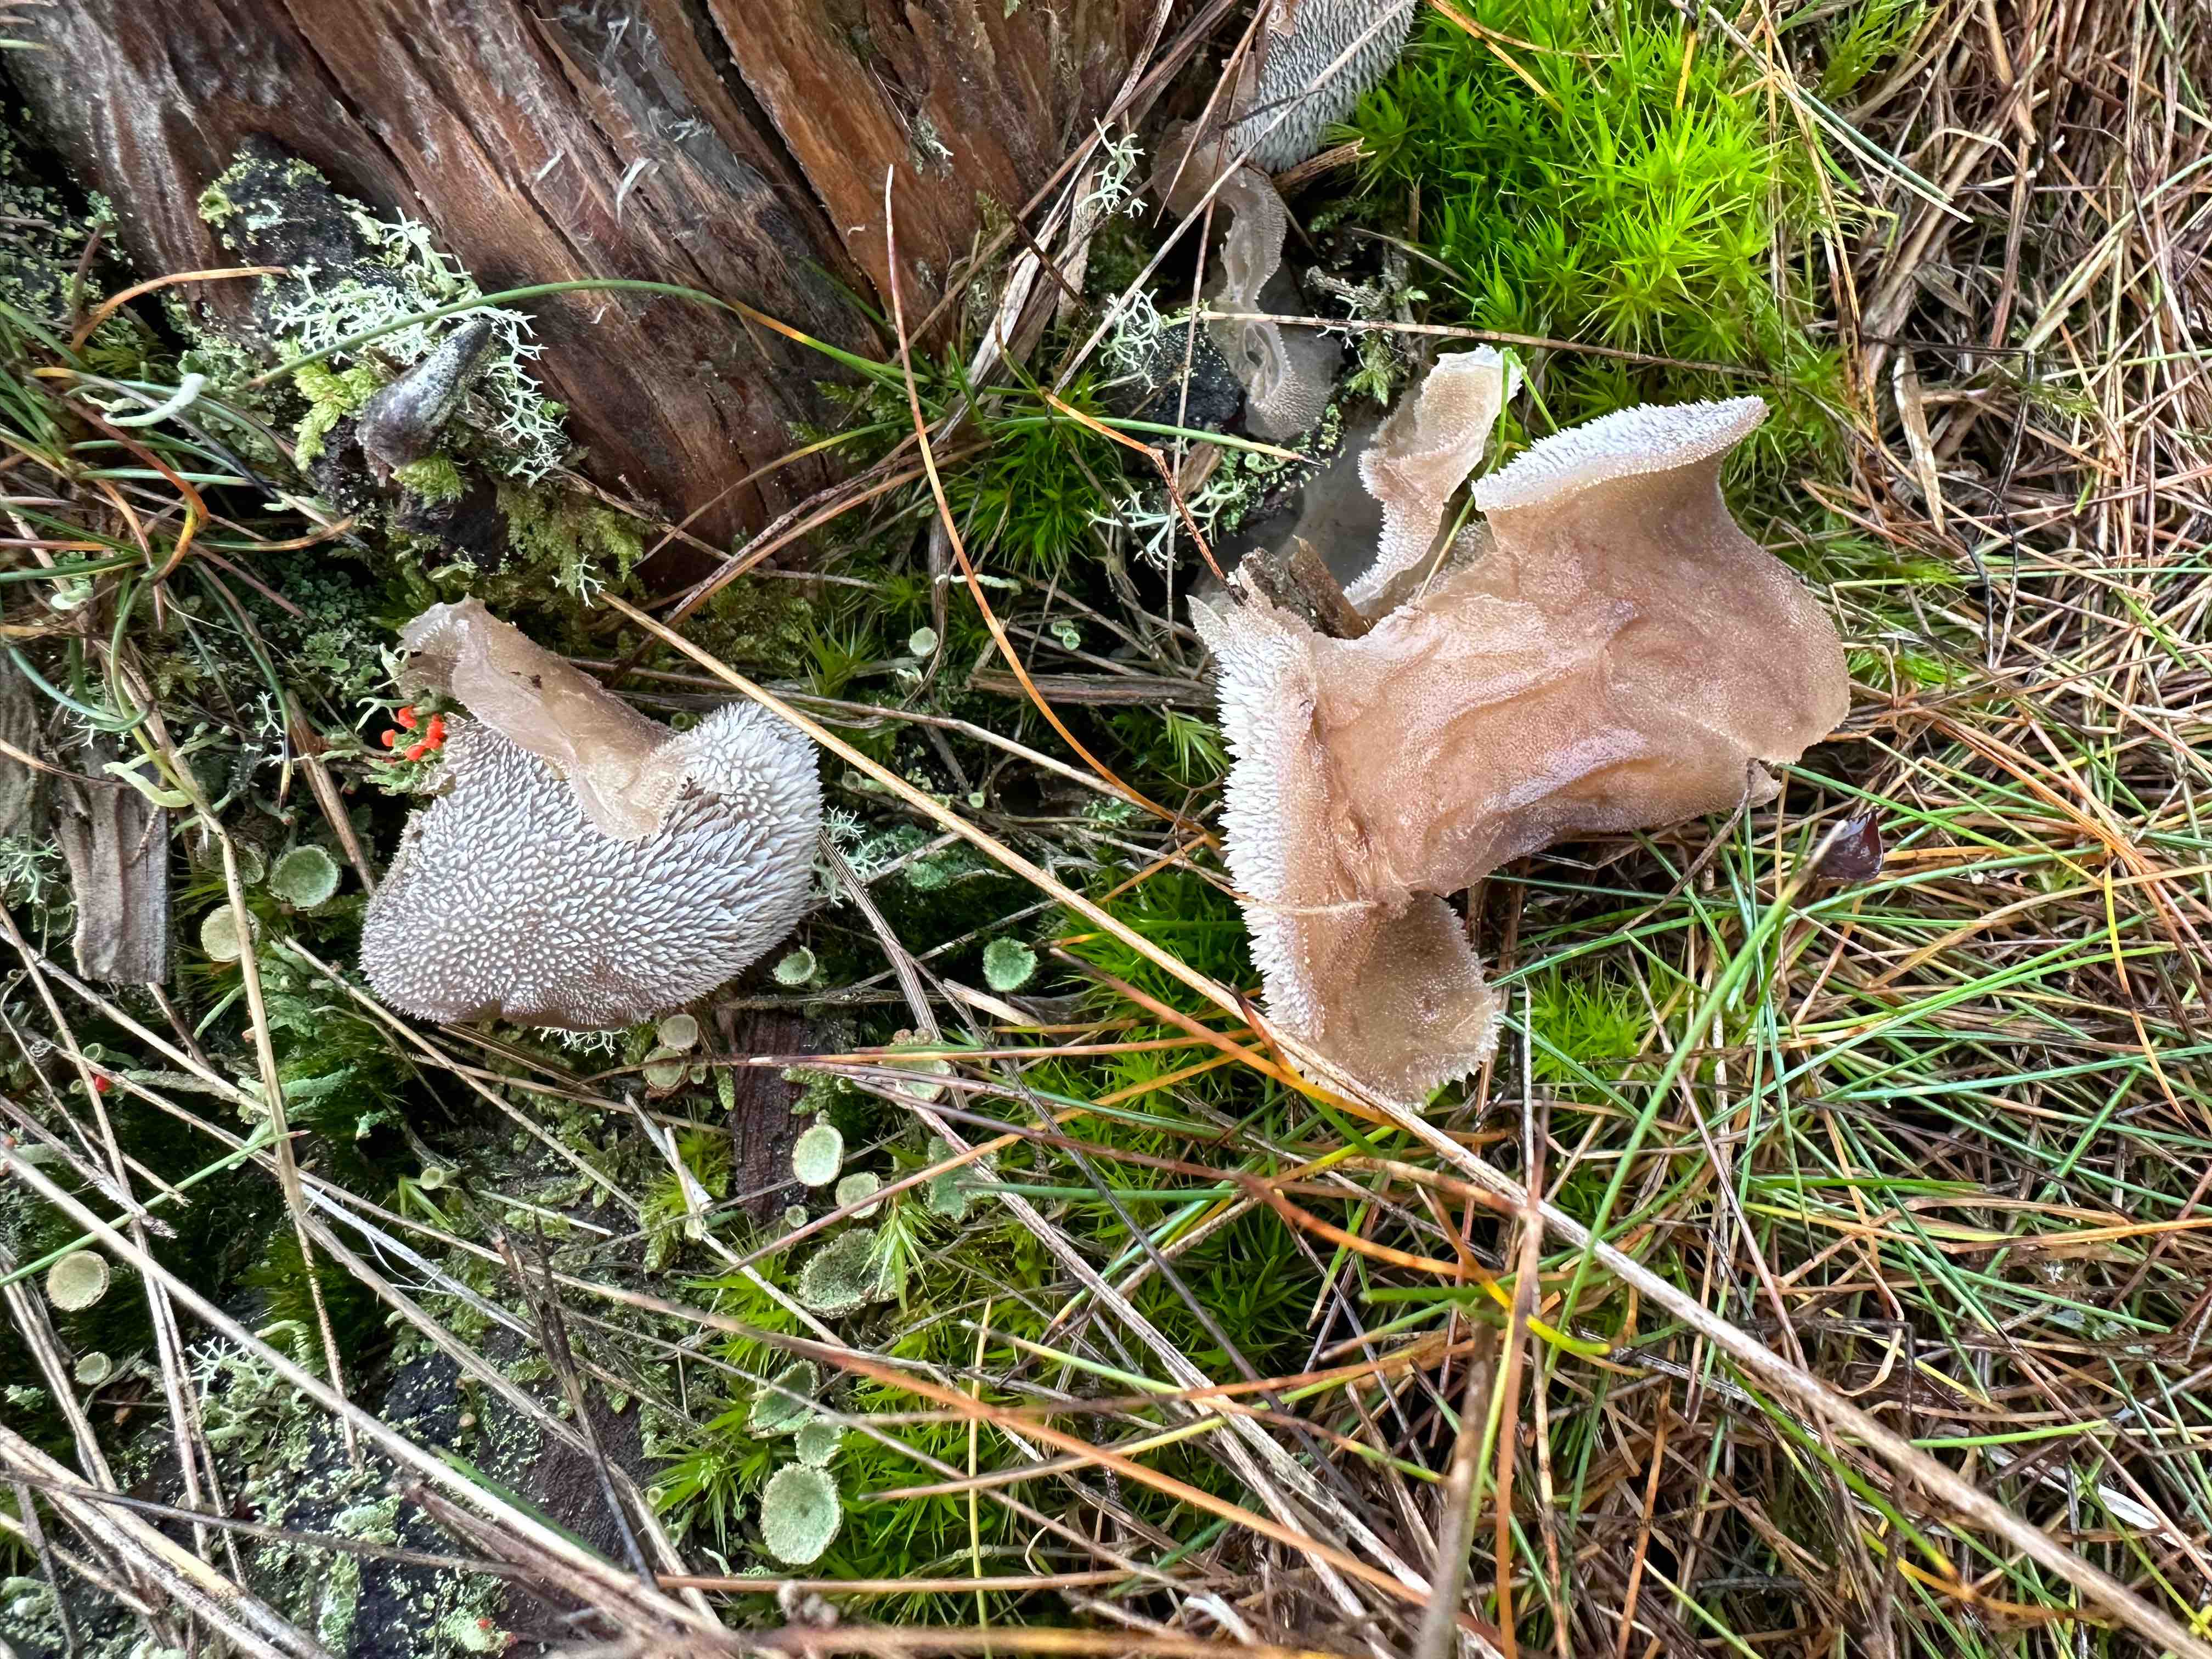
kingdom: Fungi
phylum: Basidiomycota
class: Agaricomycetes
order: Auriculariales
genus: Pseudohydnum
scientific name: Pseudohydnum gelatinosum
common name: bævretand
